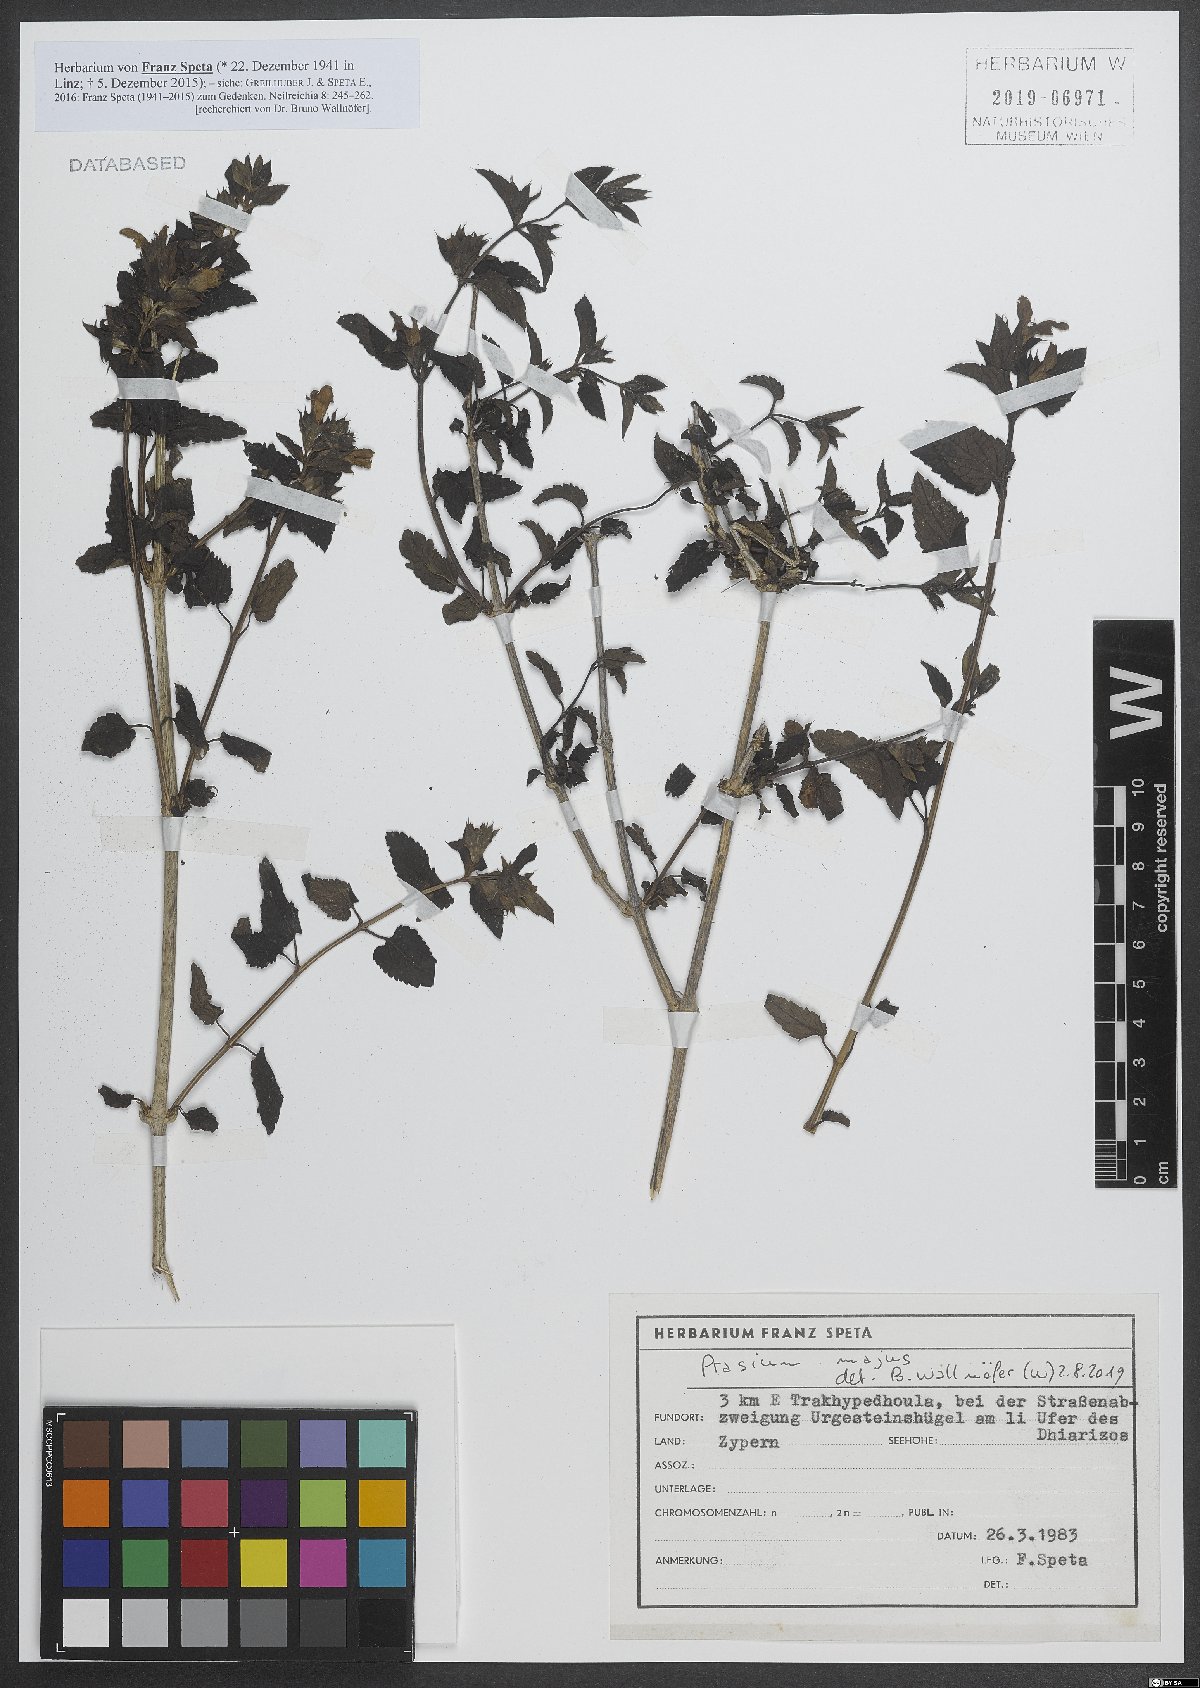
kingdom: Plantae
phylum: Tracheophyta
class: Magnoliopsida
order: Lamiales
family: Lamiaceae
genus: Prasium
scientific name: Prasium majus
